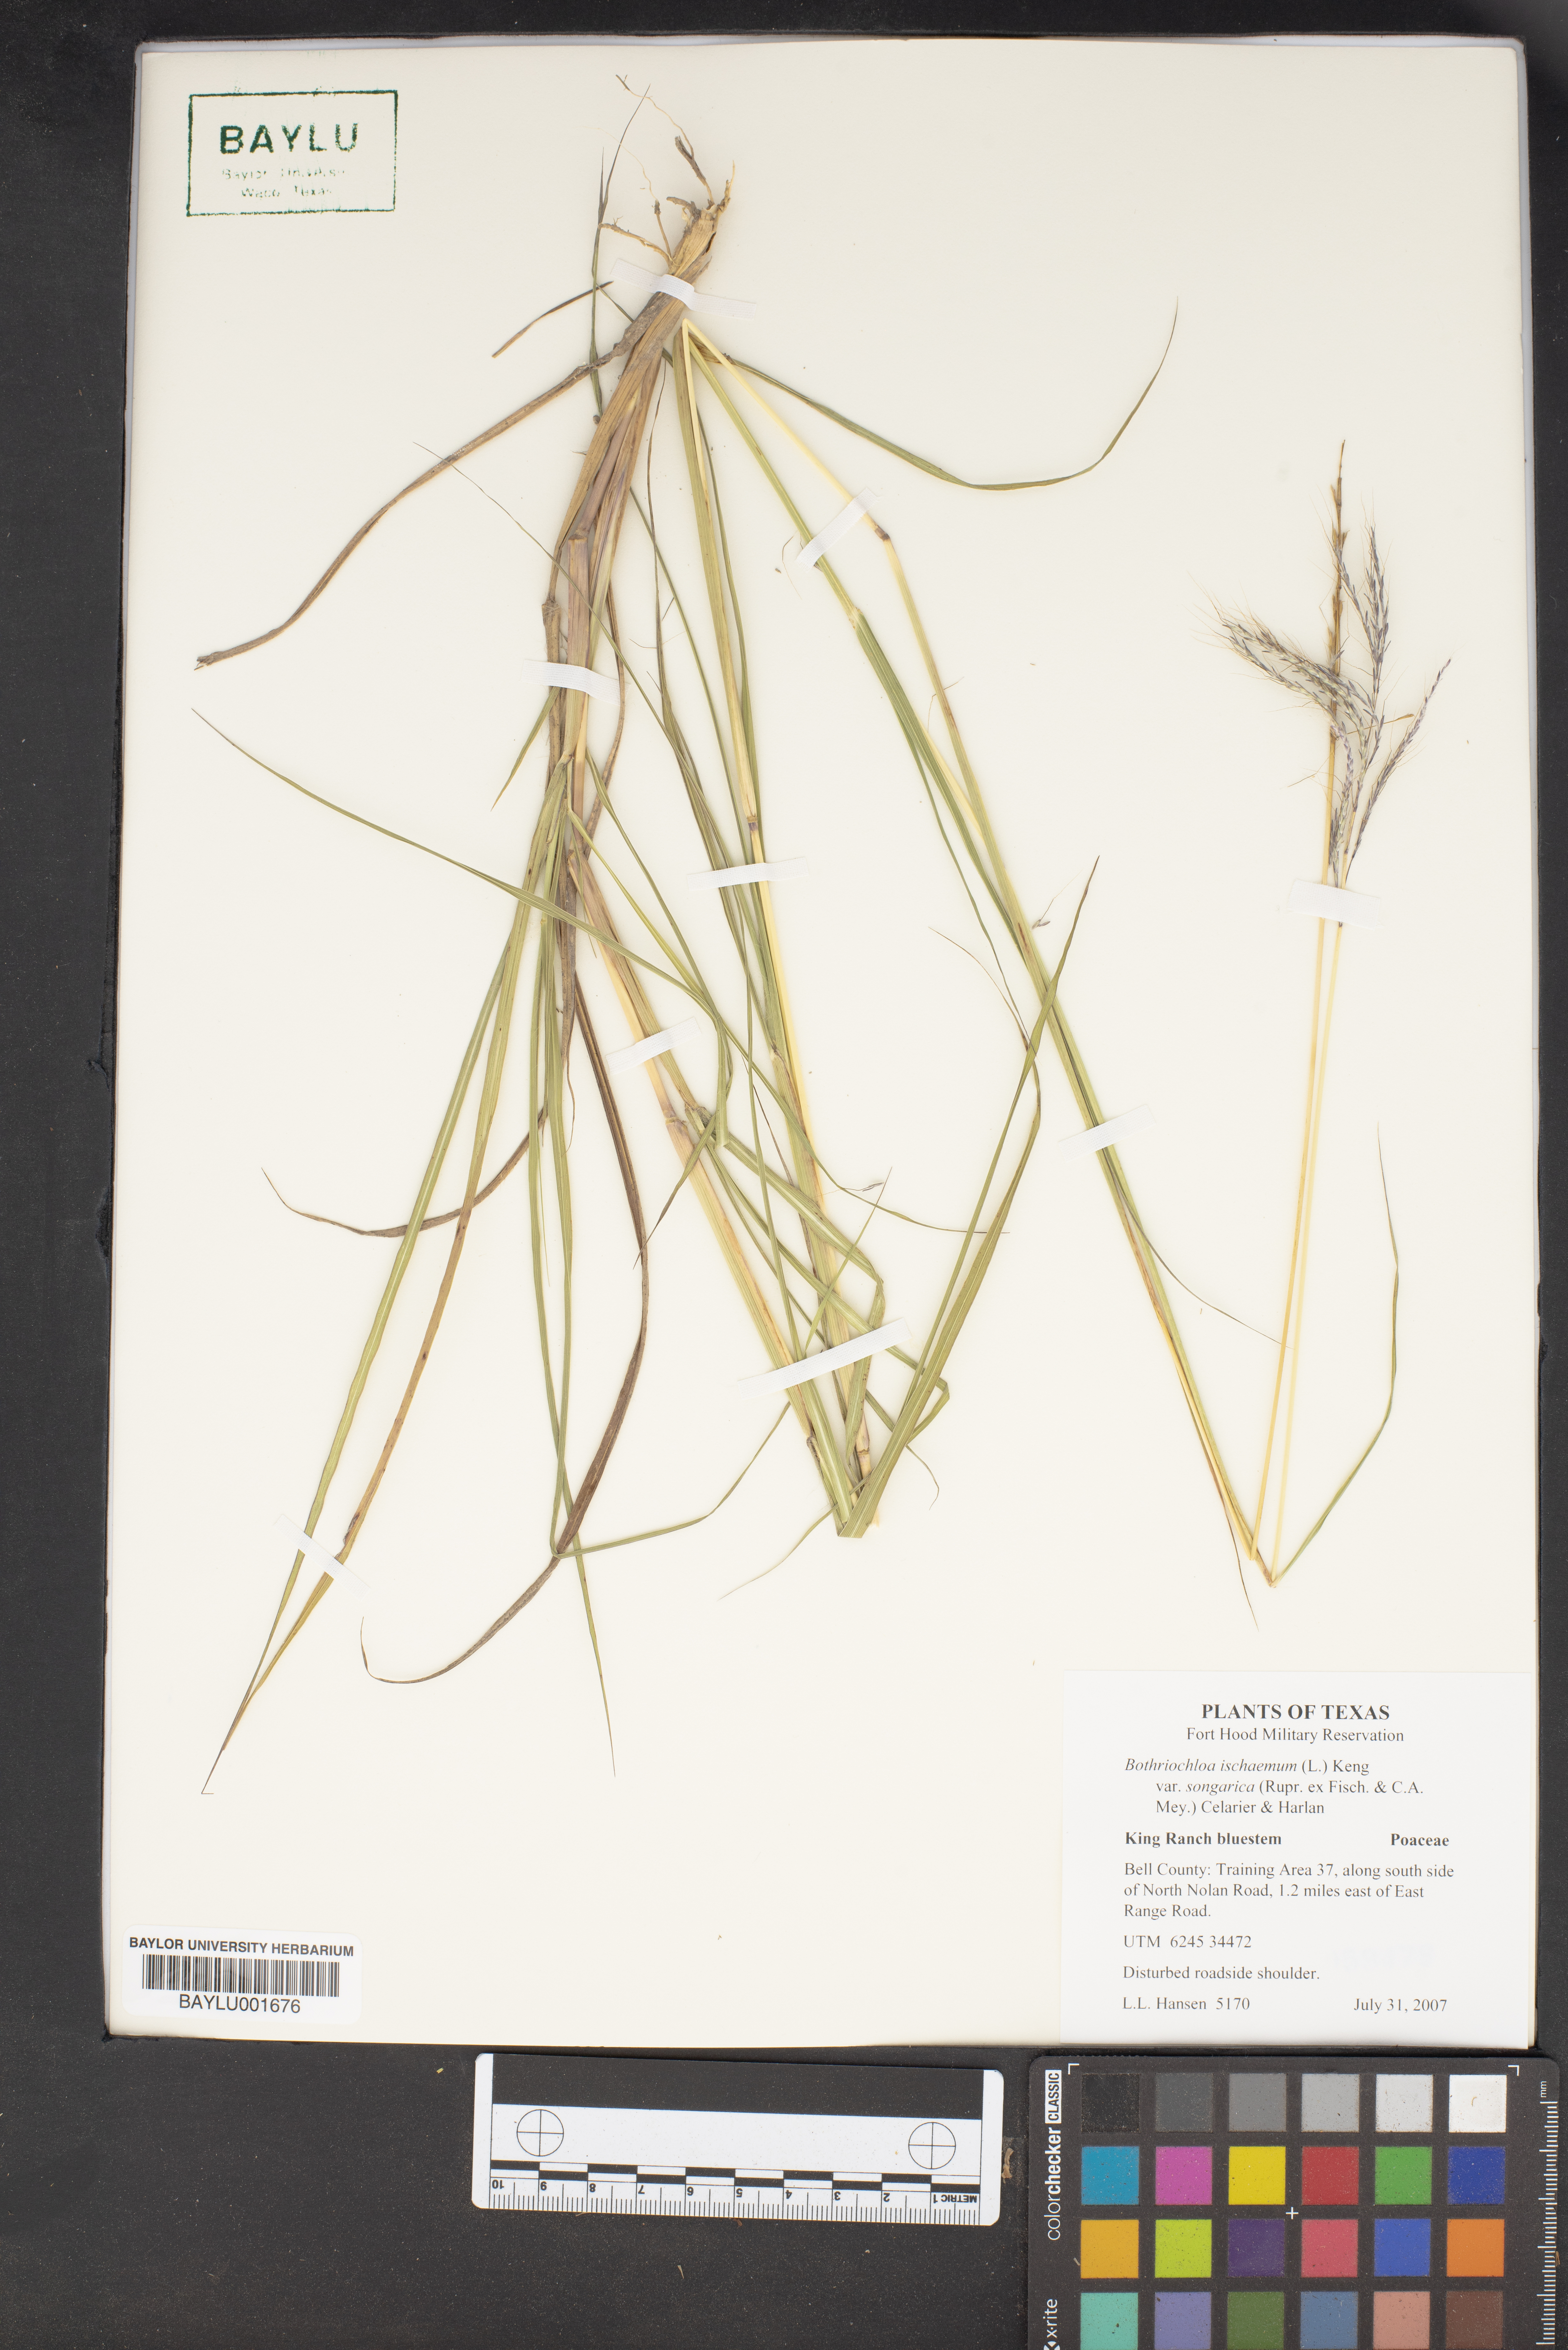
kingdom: Plantae
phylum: Tracheophyta
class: Liliopsida
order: Poales
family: Poaceae
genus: Bothriochloa
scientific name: Bothriochloa ischaemum
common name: Yellow bluestem
